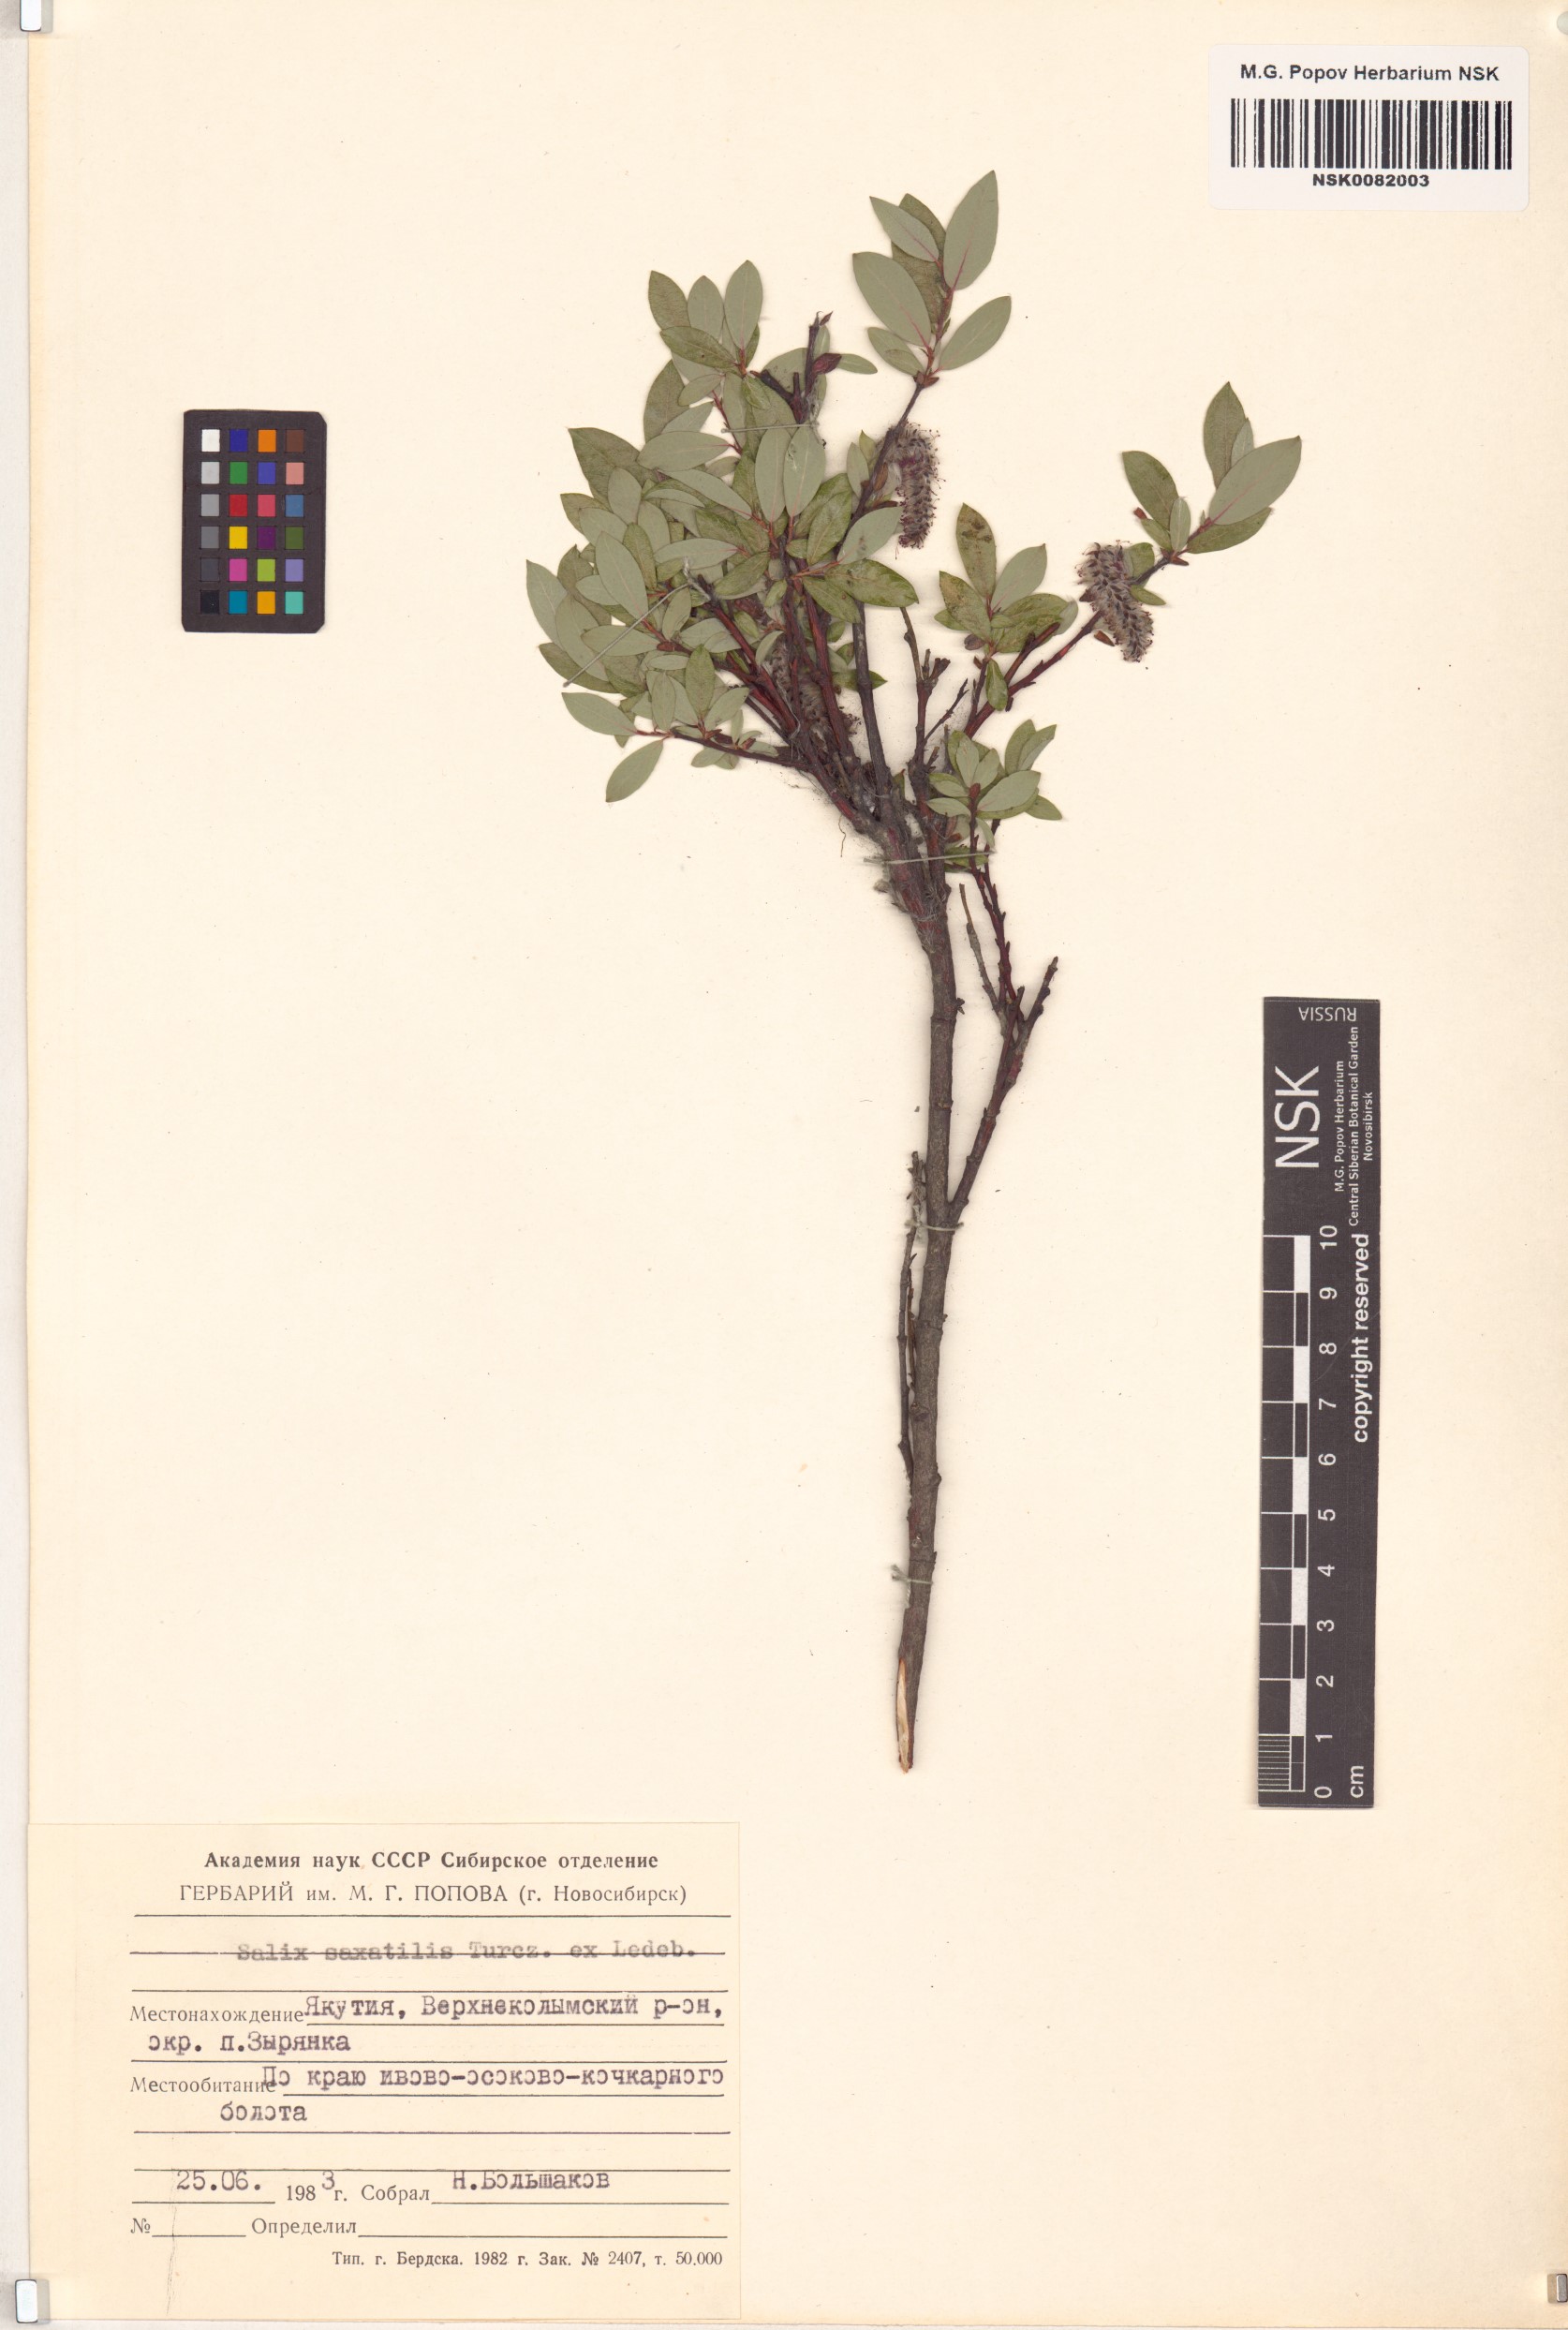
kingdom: Plantae
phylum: Tracheophyta
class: Magnoliopsida
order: Malpighiales
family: Salicaceae
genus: Salix
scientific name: Salix saxatilis
